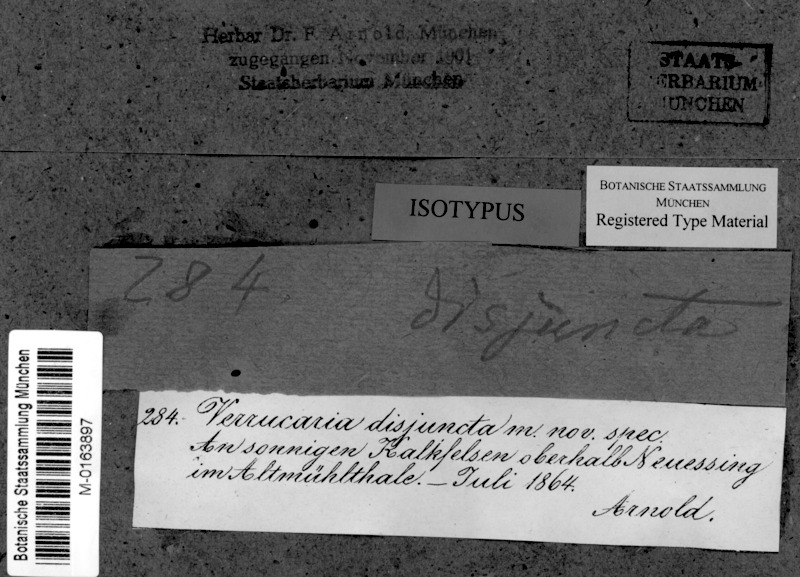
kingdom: Fungi
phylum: Ascomycota
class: Eurotiomycetes
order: Verrucariales
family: Verrucariaceae
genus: Parabagliettoa
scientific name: Parabagliettoa disjuncta
